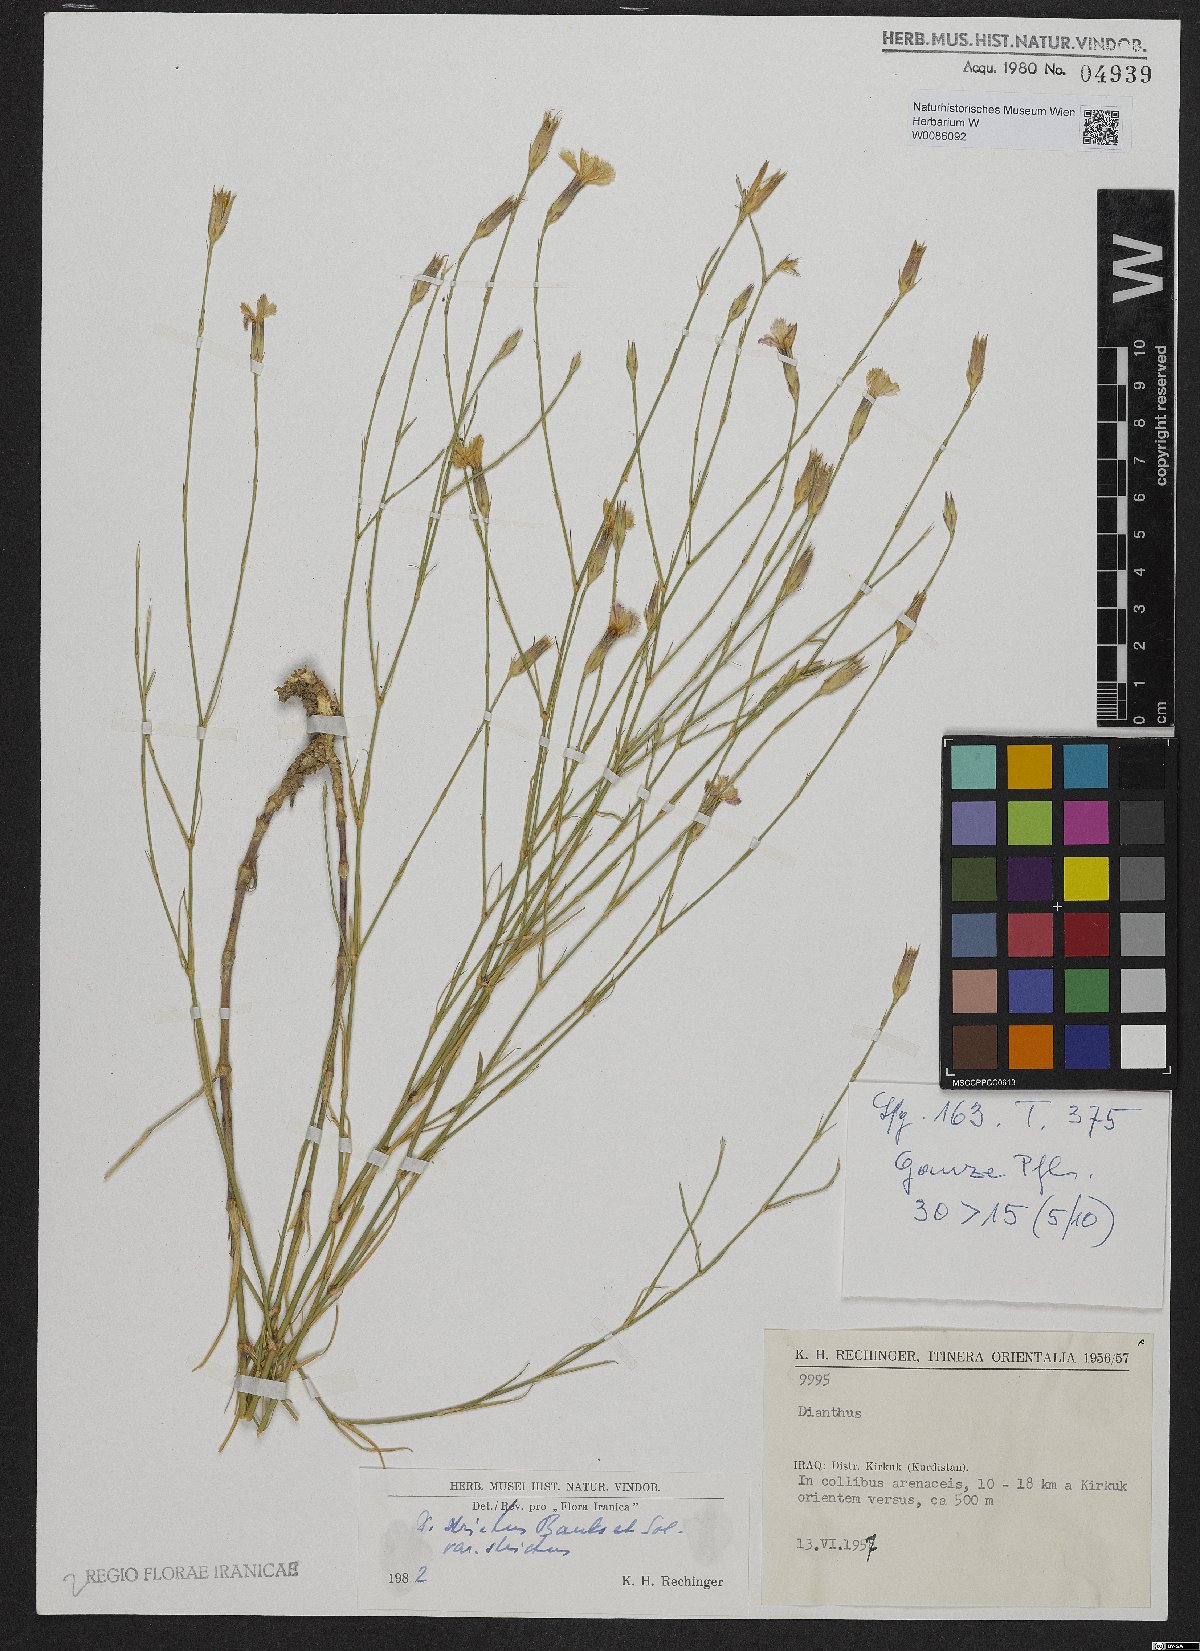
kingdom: Plantae
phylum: Tracheophyta
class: Magnoliopsida
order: Caryophyllales
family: Caryophyllaceae
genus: Dianthus
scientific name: Dianthus strictus
